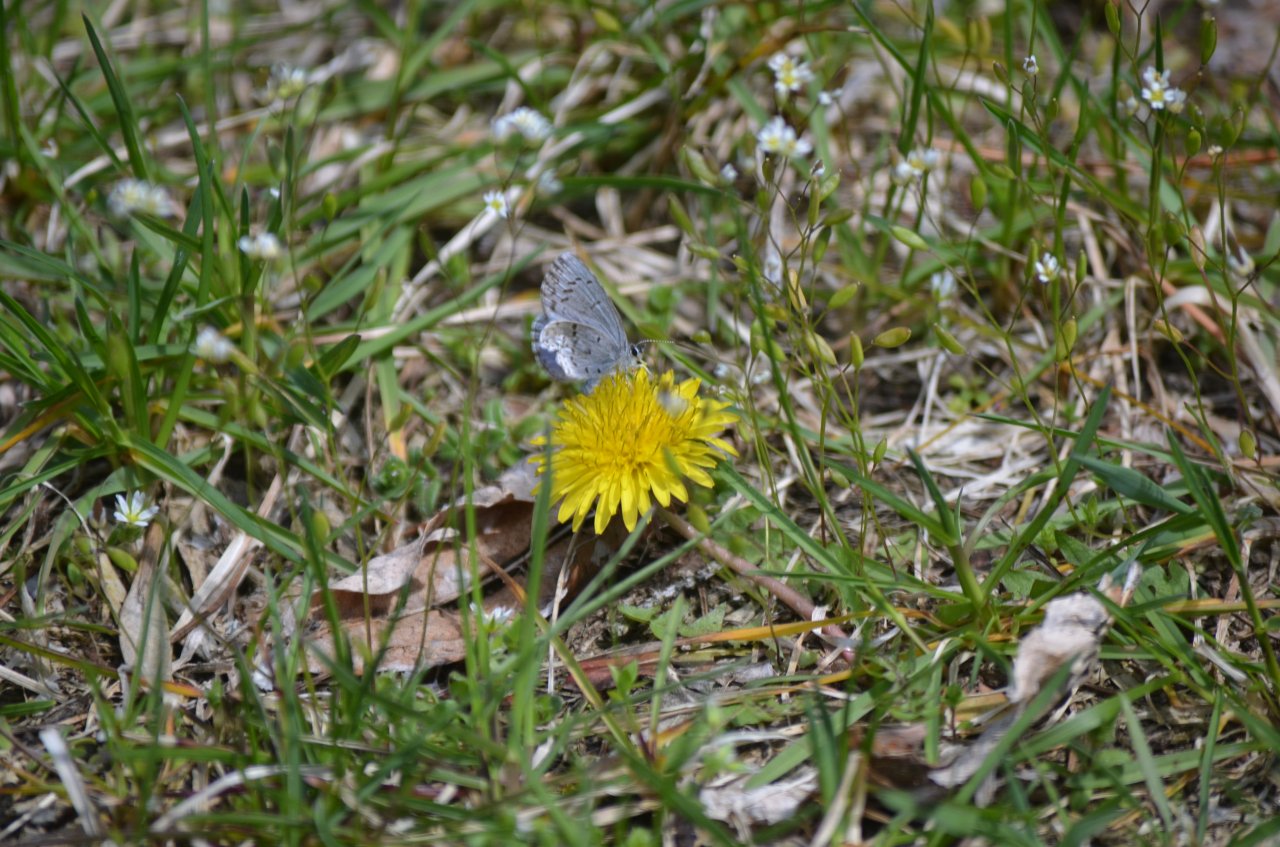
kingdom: Animalia
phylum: Arthropoda
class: Insecta
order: Lepidoptera
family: Lycaenidae
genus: Celastrina
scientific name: Celastrina
